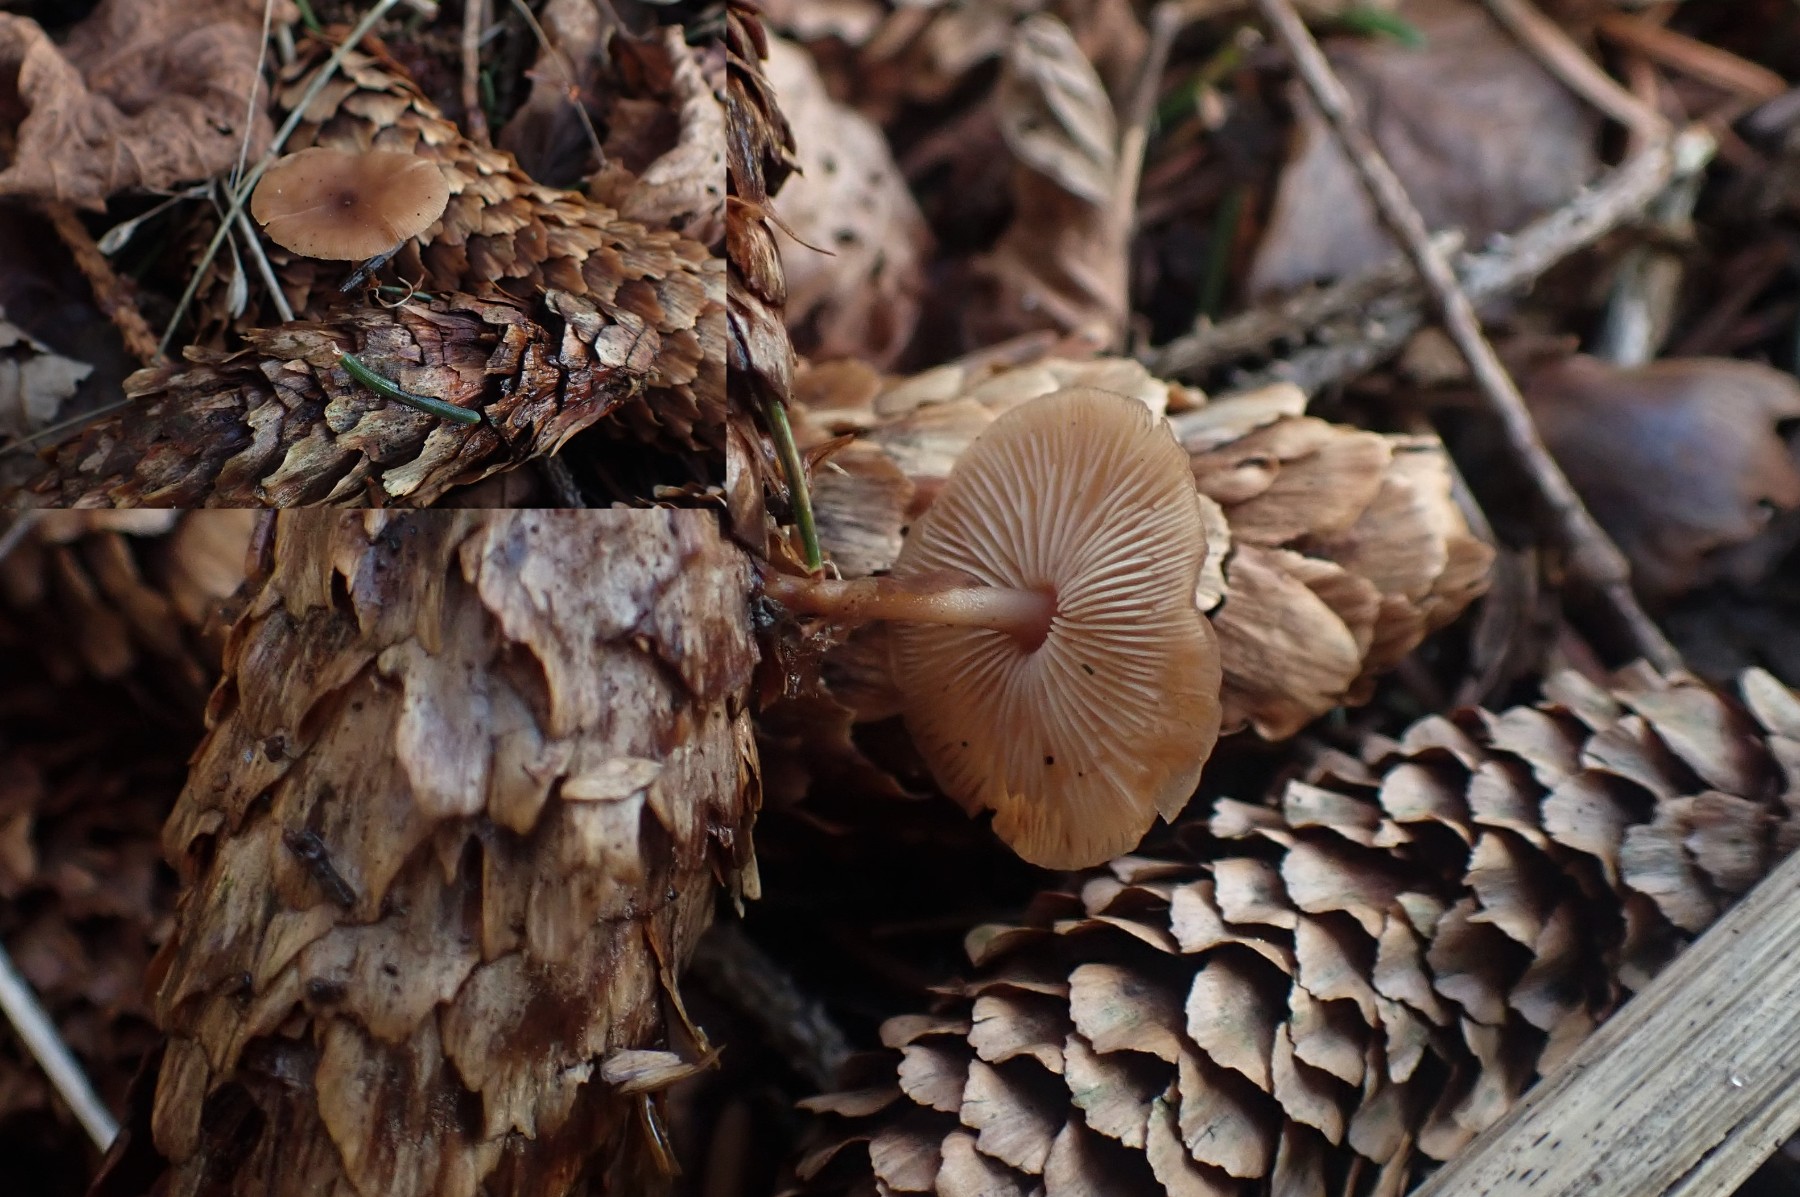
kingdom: Fungi
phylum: Basidiomycota
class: Agaricomycetes
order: Agaricales
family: Marasmiaceae
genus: Baeospora
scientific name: Baeospora myosura
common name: koglebruskhat
